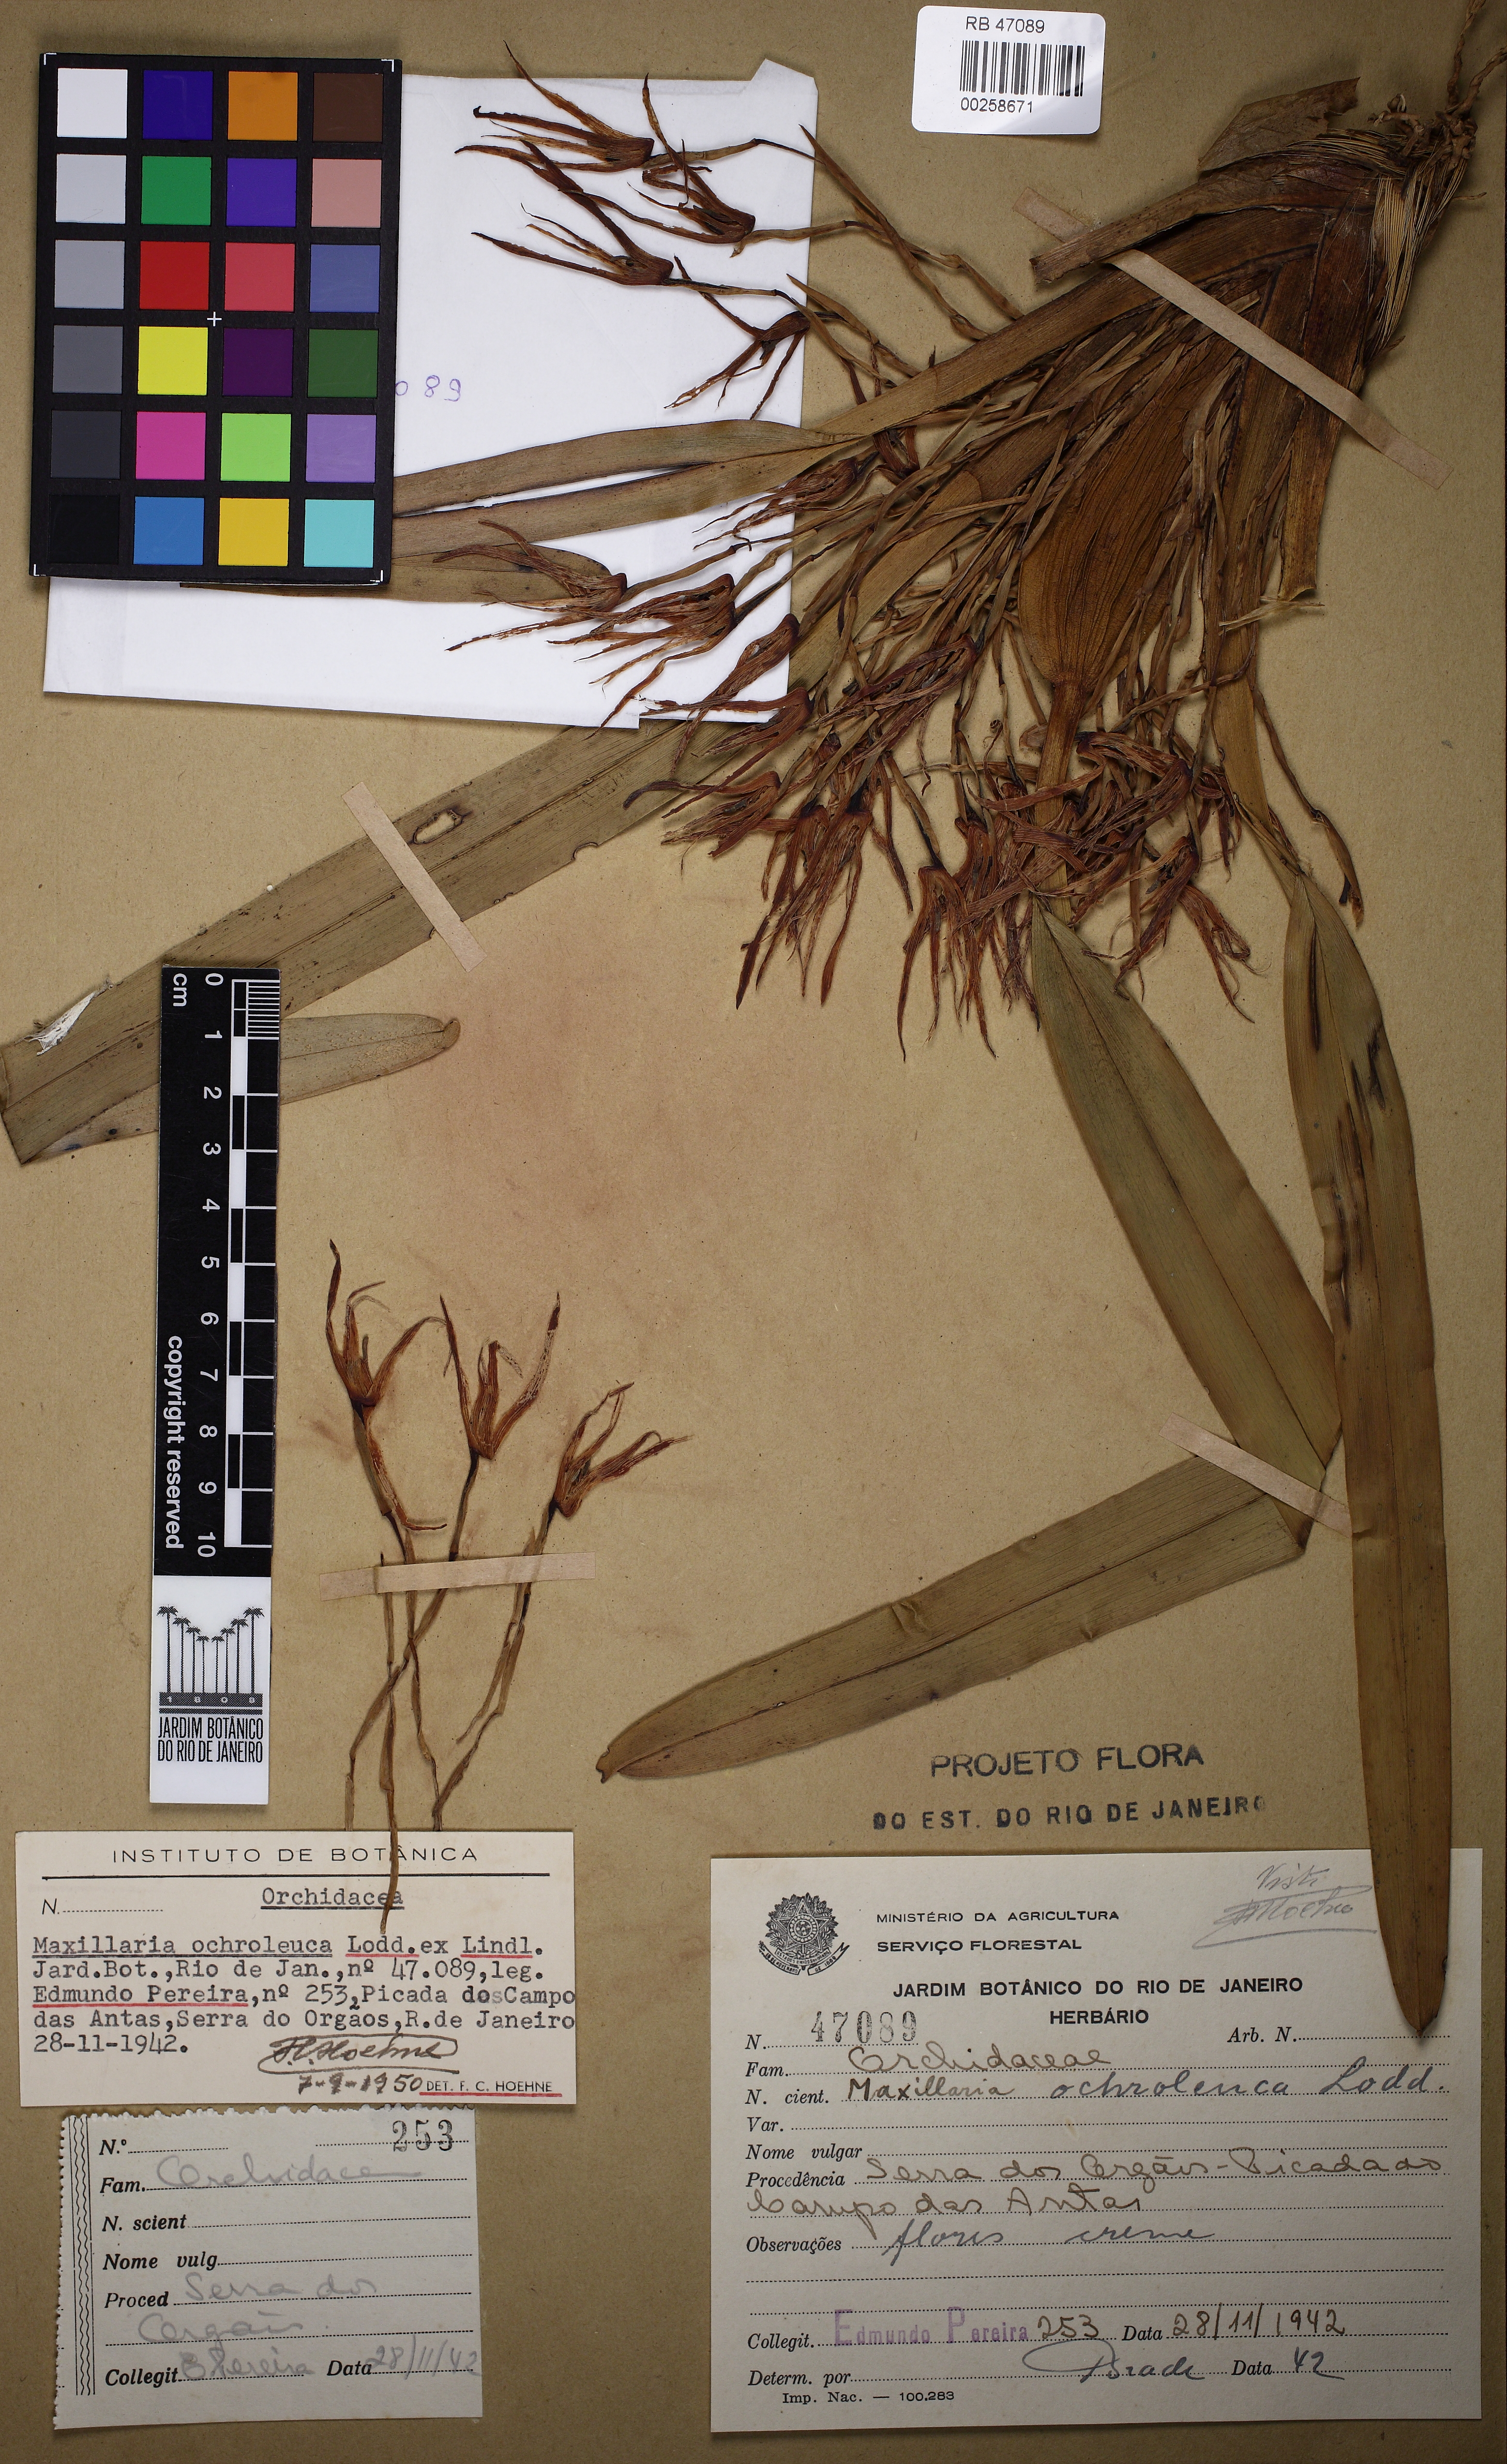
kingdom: Plantae
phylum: Tracheophyta
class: Liliopsida
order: Asparagales
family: Orchidaceae
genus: Maxillaria
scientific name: Maxillaria ochroleuca
